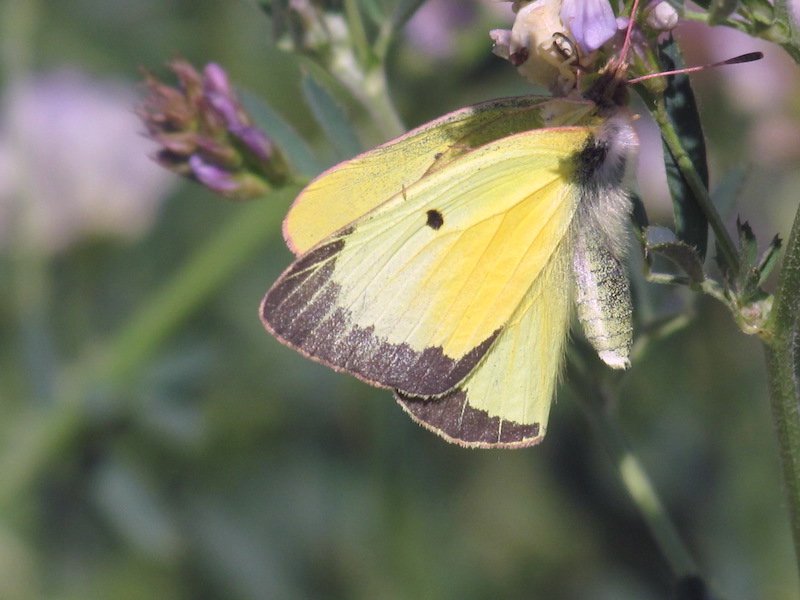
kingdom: Animalia
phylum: Arthropoda
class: Insecta
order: Lepidoptera
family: Pieridae
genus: Colias
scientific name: Colias eurytheme
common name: Orange Sulphur
